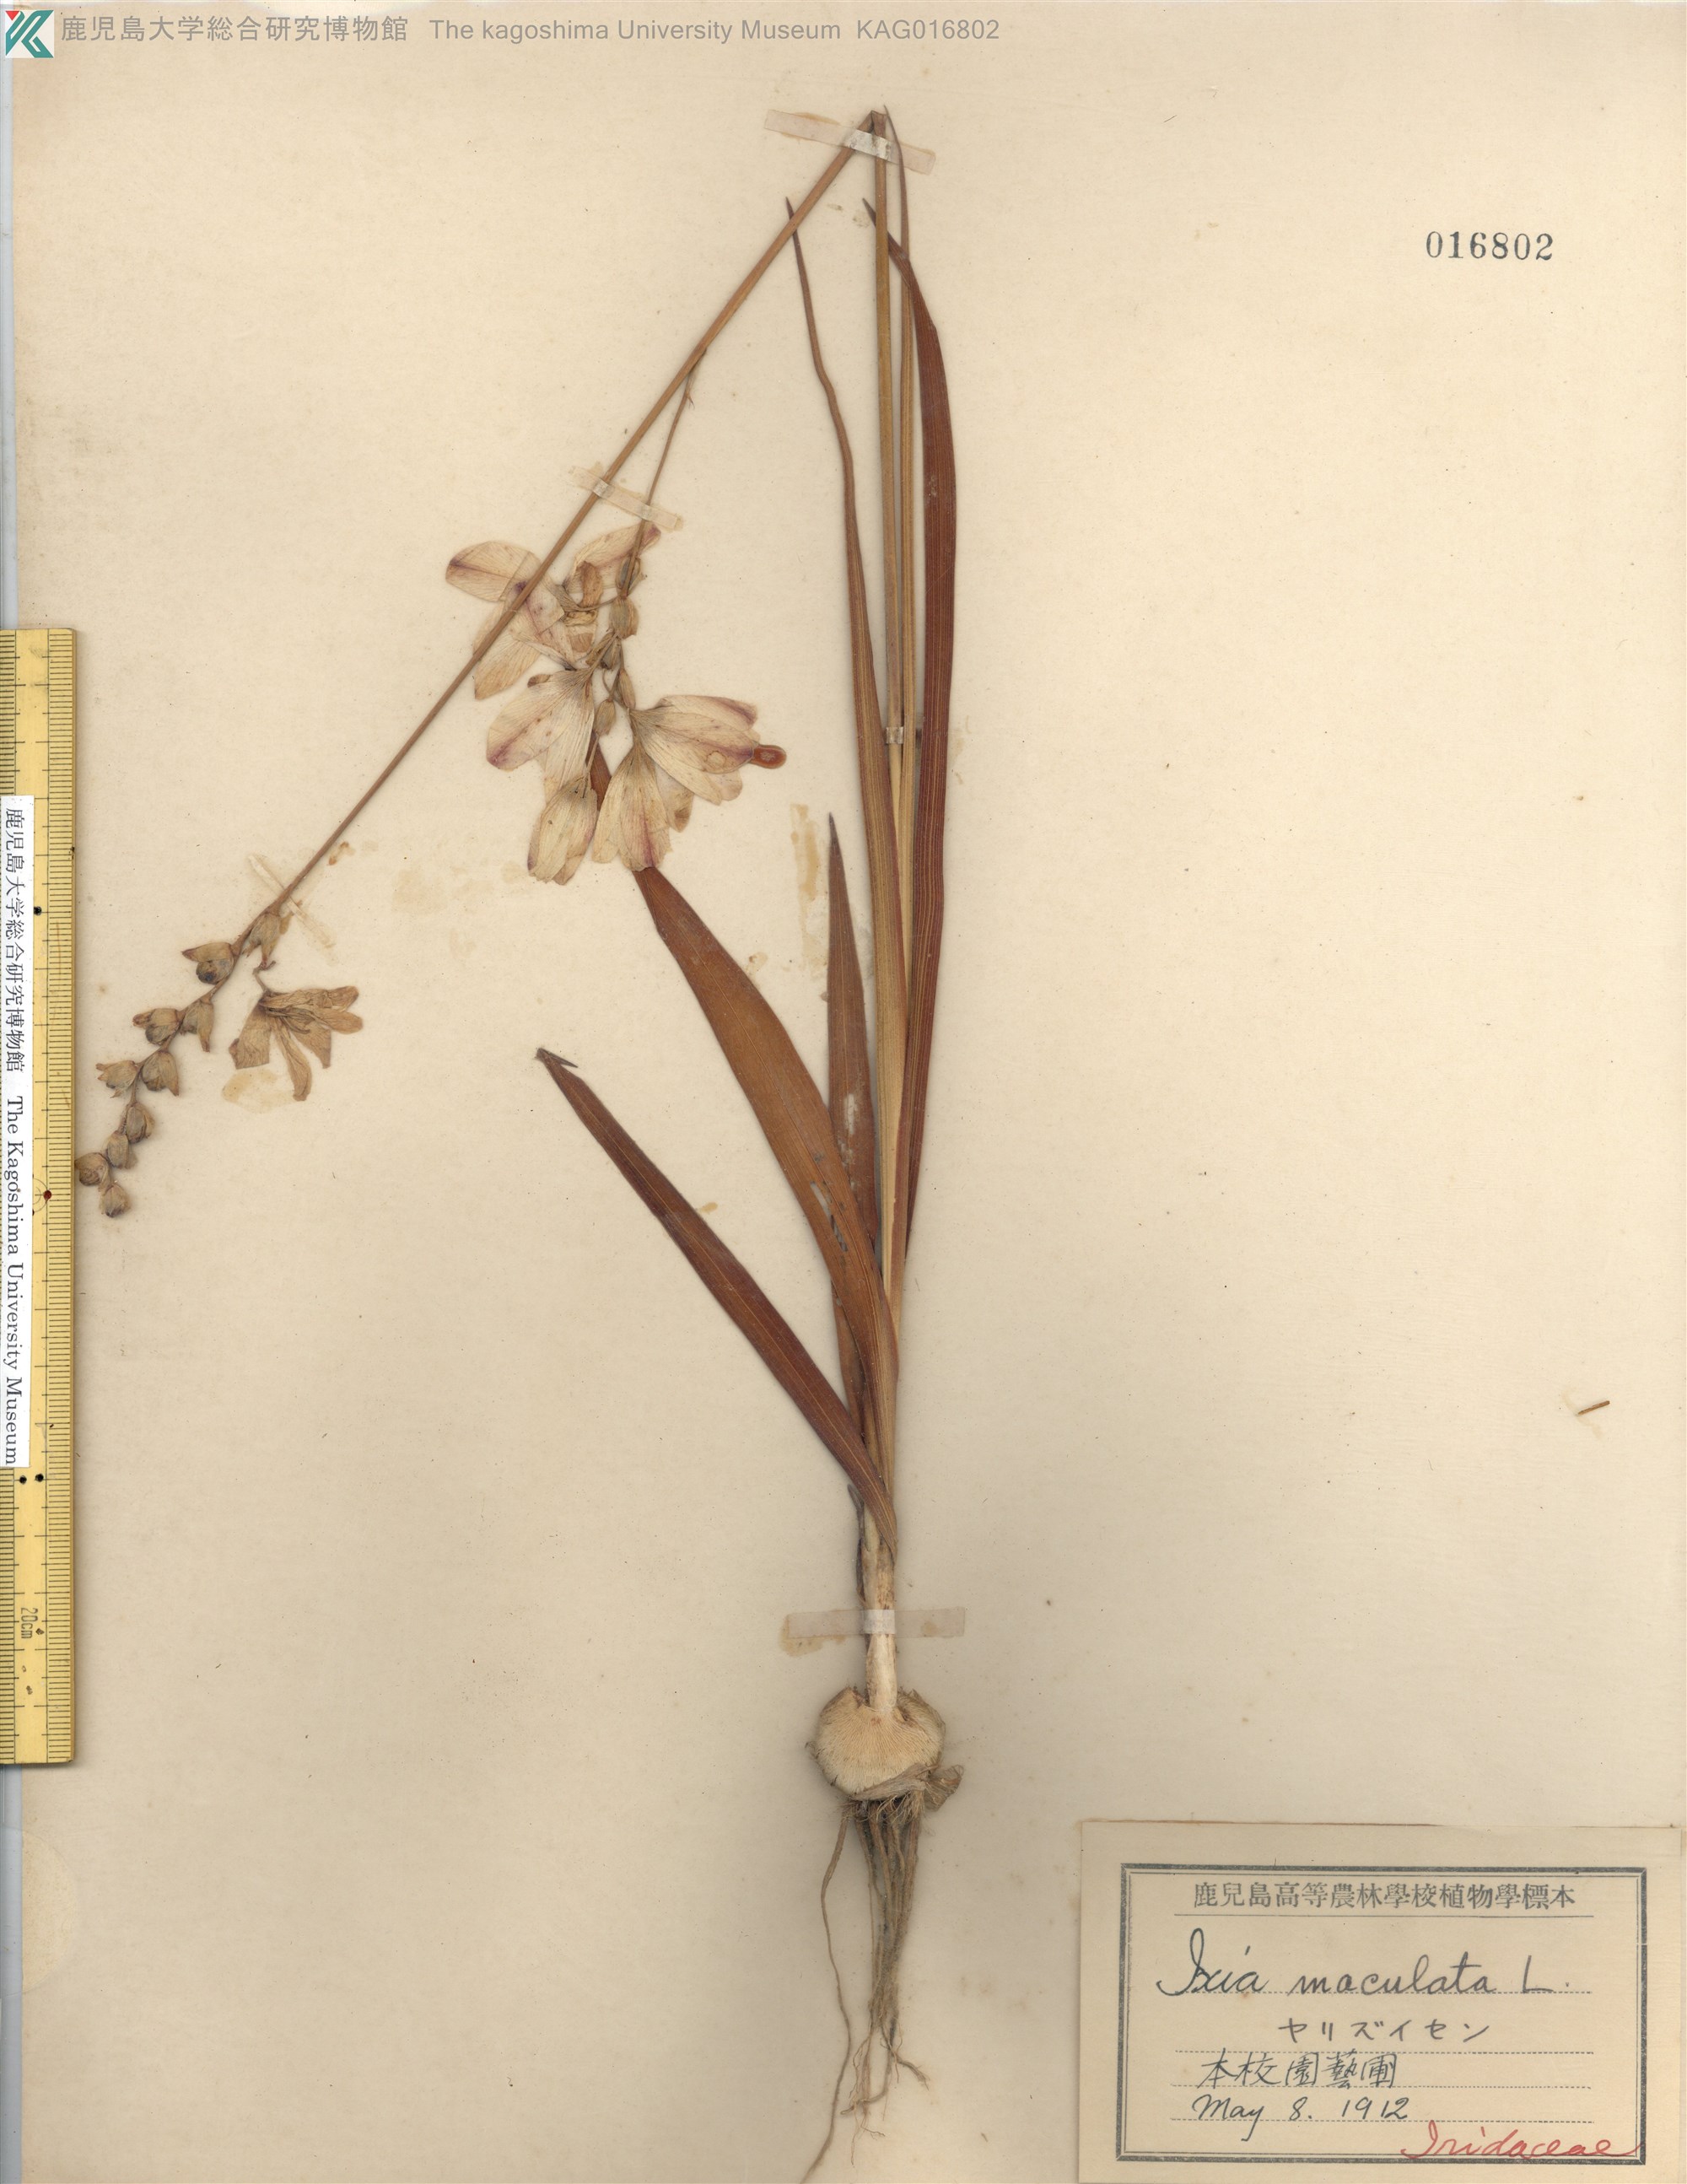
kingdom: Plantae
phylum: Tracheophyta
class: Liliopsida
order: Asparagales
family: Iridaceae
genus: Ixia
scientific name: Ixia maculata
